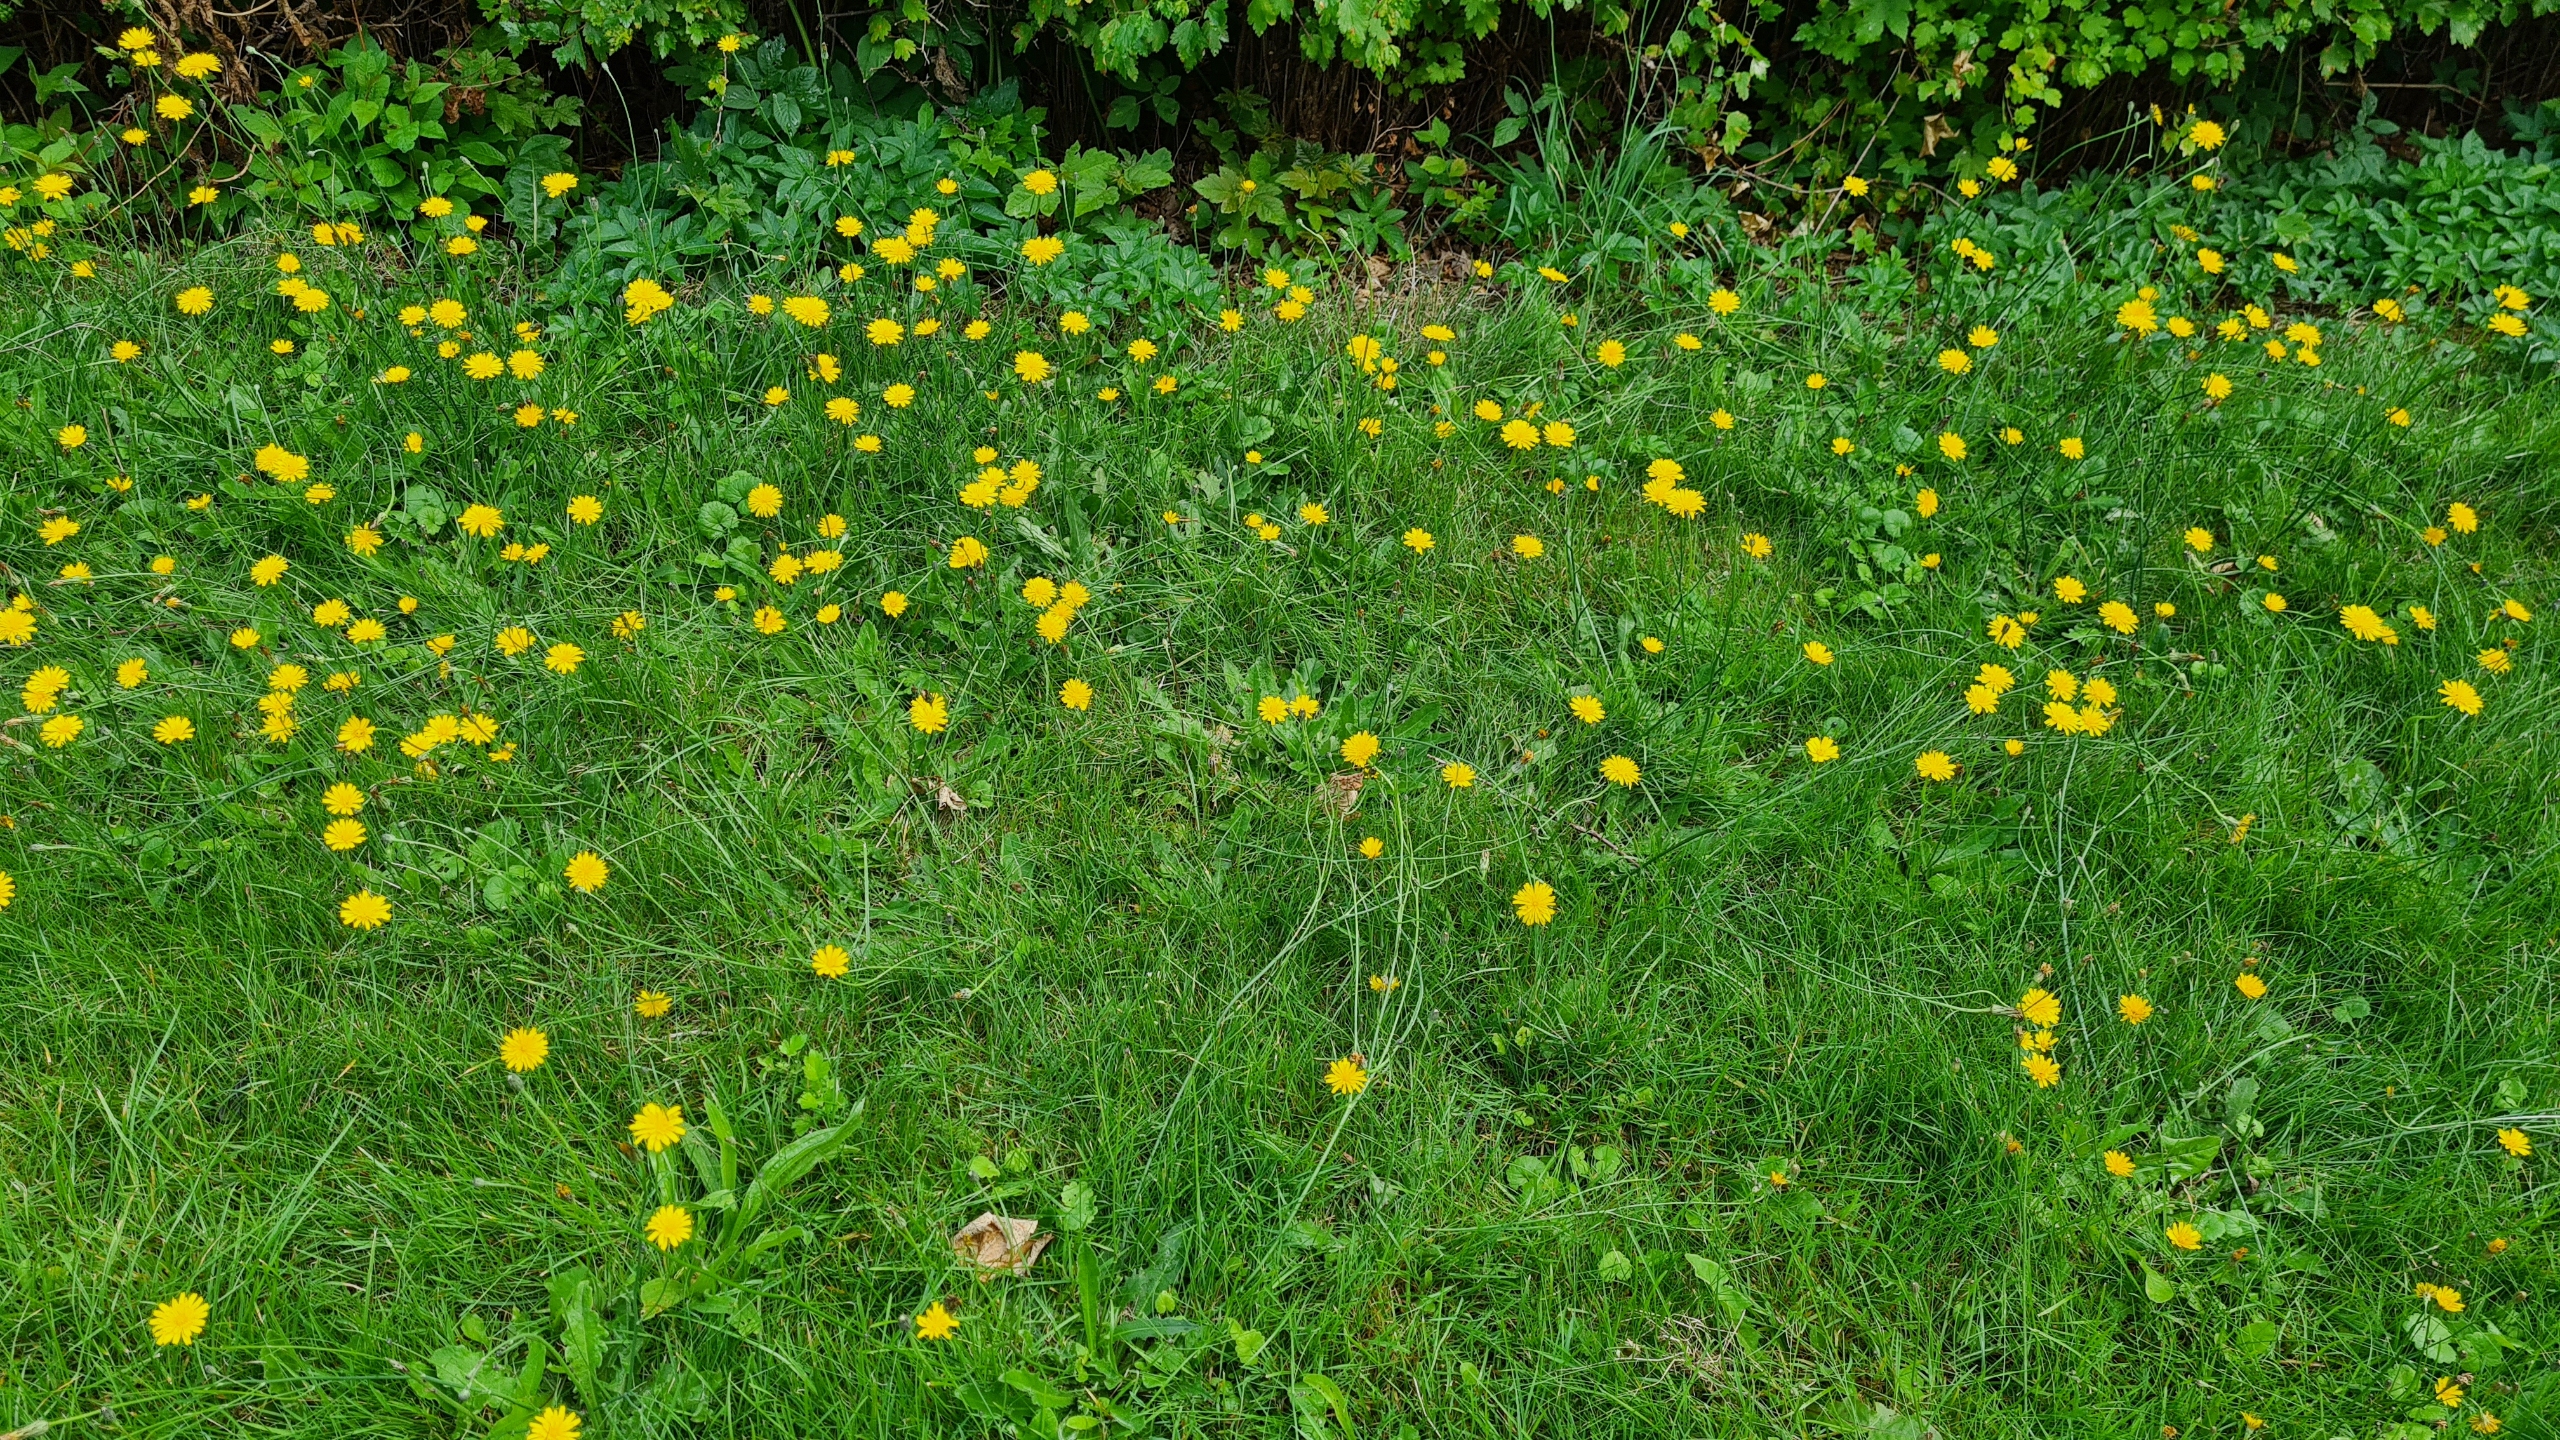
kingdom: Plantae
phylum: Tracheophyta
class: Magnoliopsida
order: Asterales
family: Asteraceae
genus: Hypochaeris
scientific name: Hypochaeris radicata
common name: Almindelig kongepen
